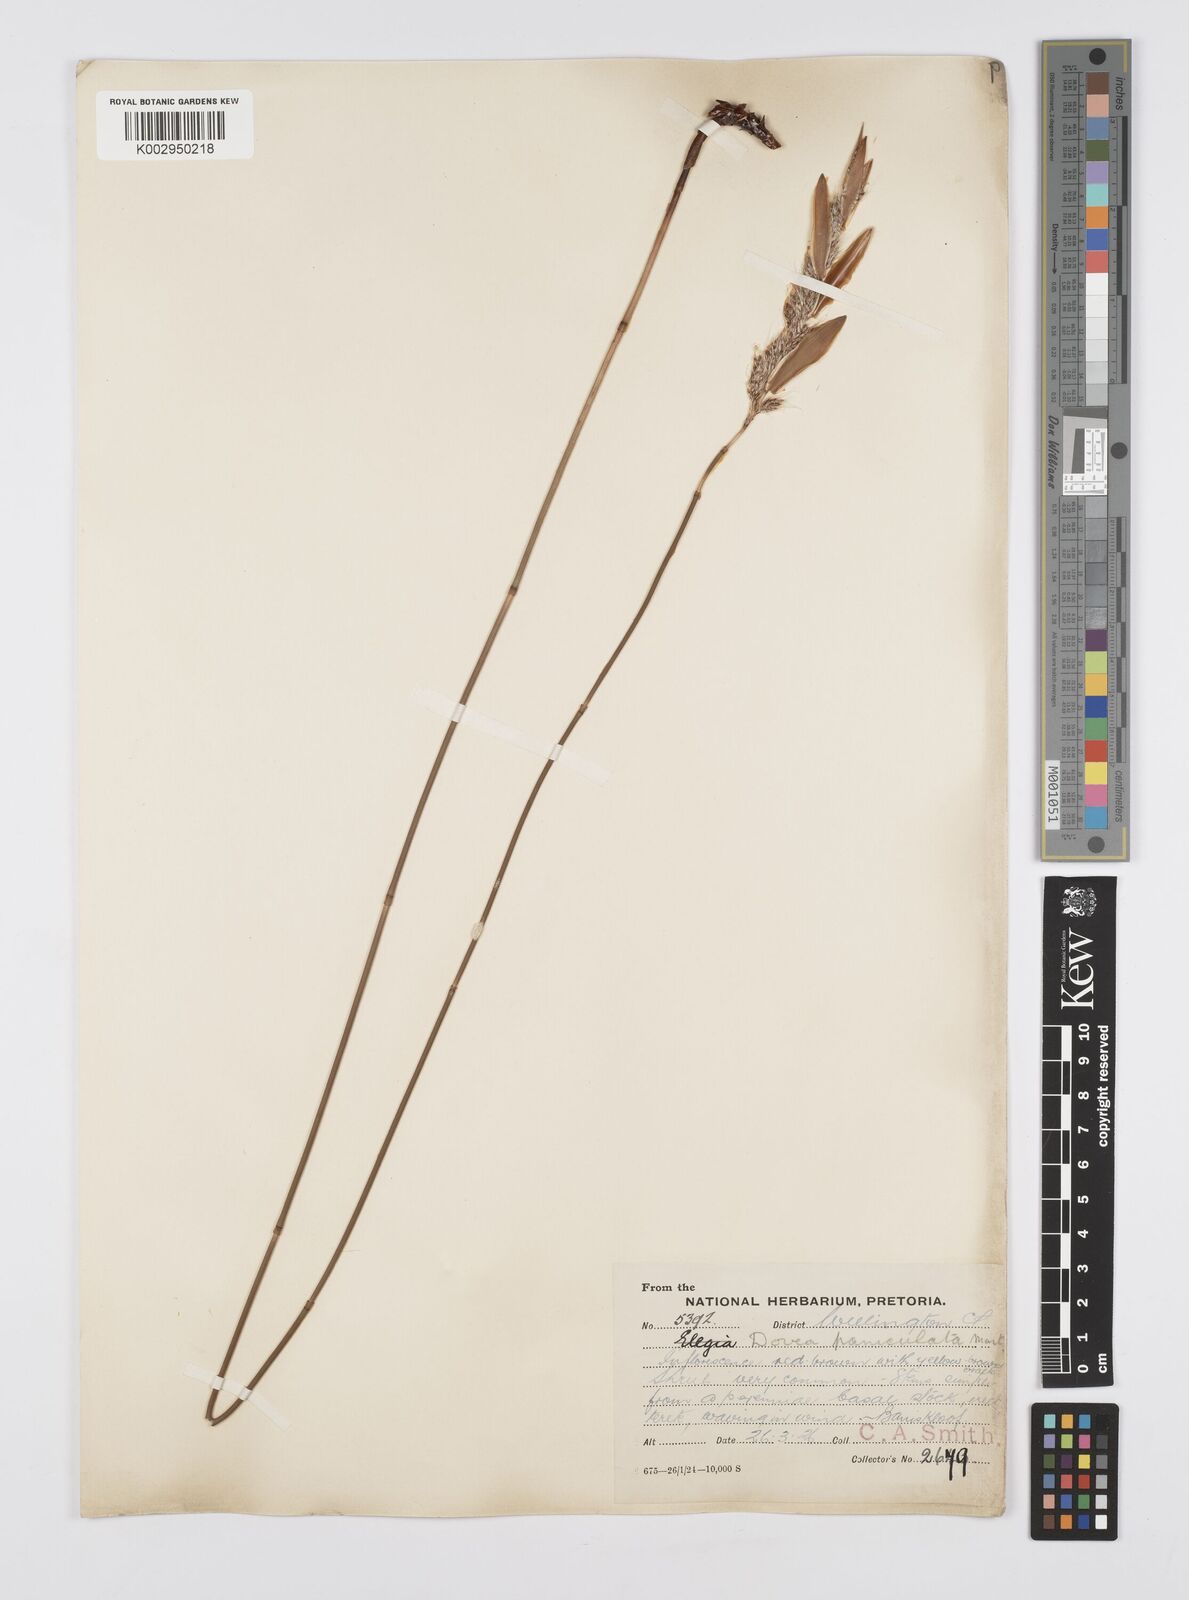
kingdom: Plantae
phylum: Tracheophyta
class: Liliopsida
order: Poales
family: Restionaceae
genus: Askidiosperma
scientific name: Askidiosperma paniculatum
